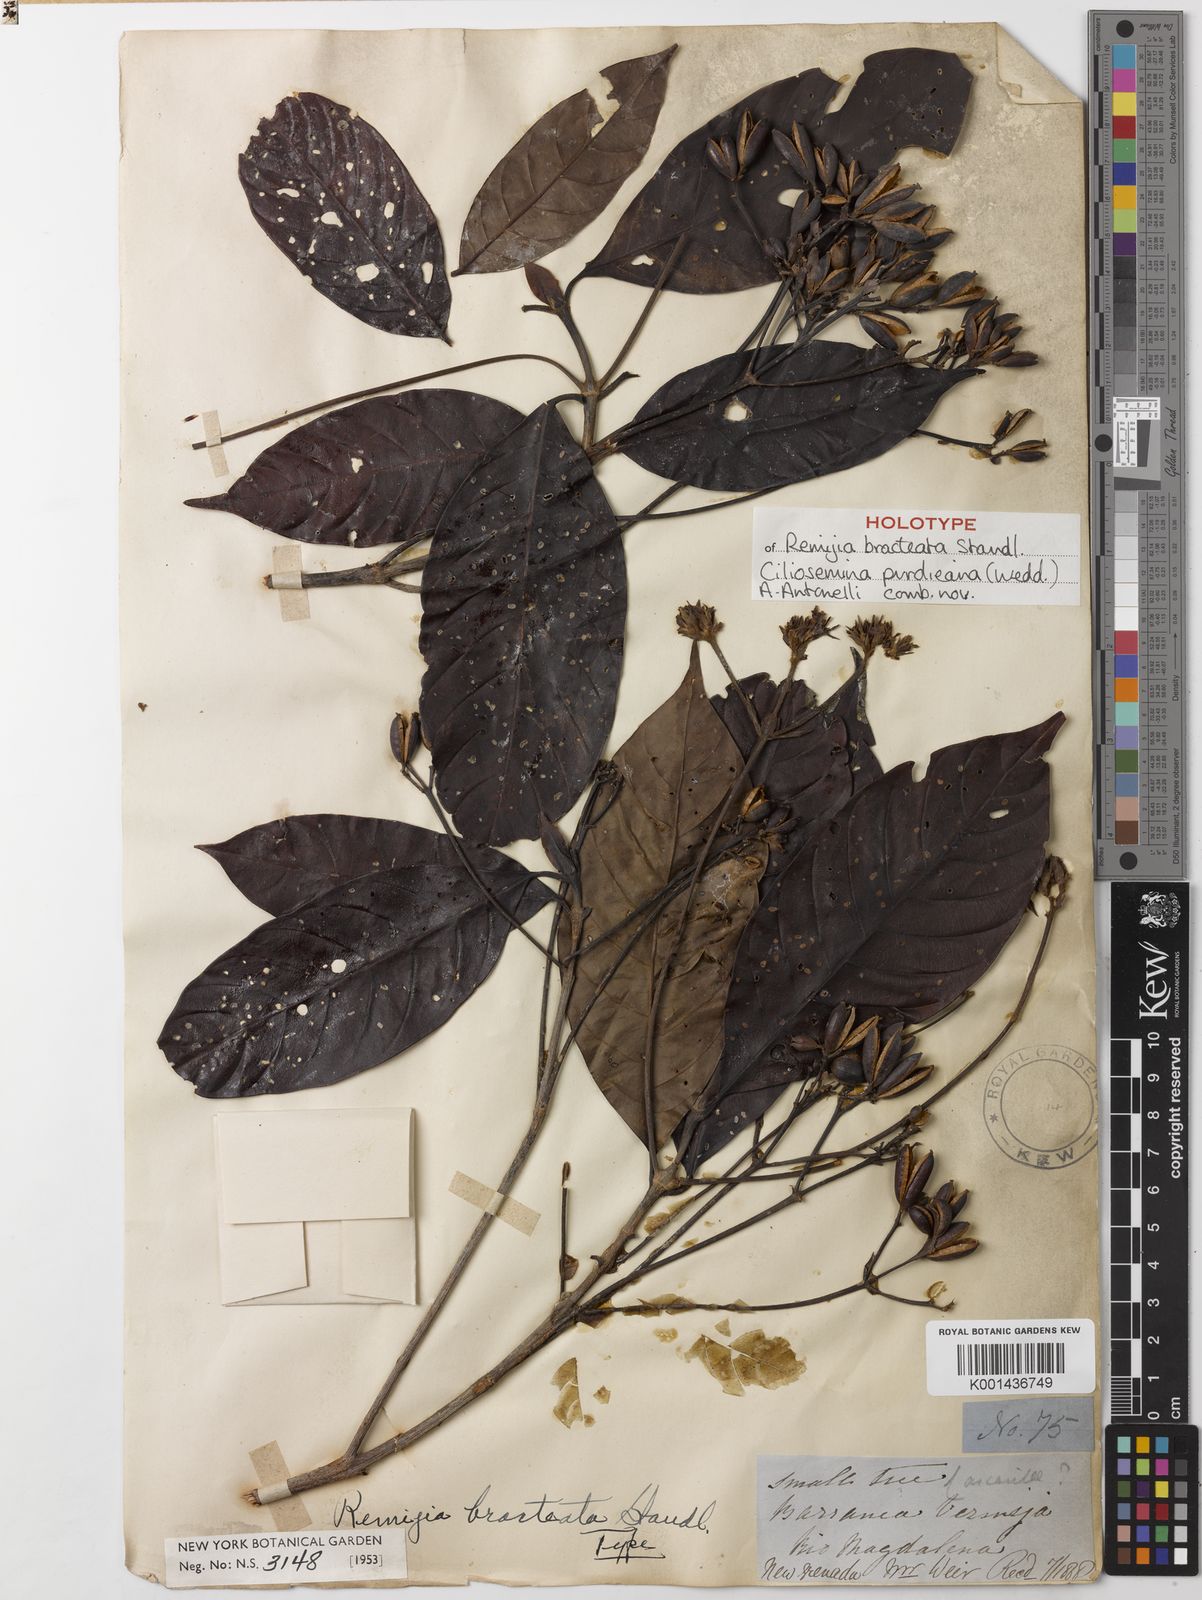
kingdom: Plantae
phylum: Tracheophyta
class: Magnoliopsida
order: Gentianales
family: Rubiaceae
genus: Ciliosemina
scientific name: Ciliosemina purdieana
